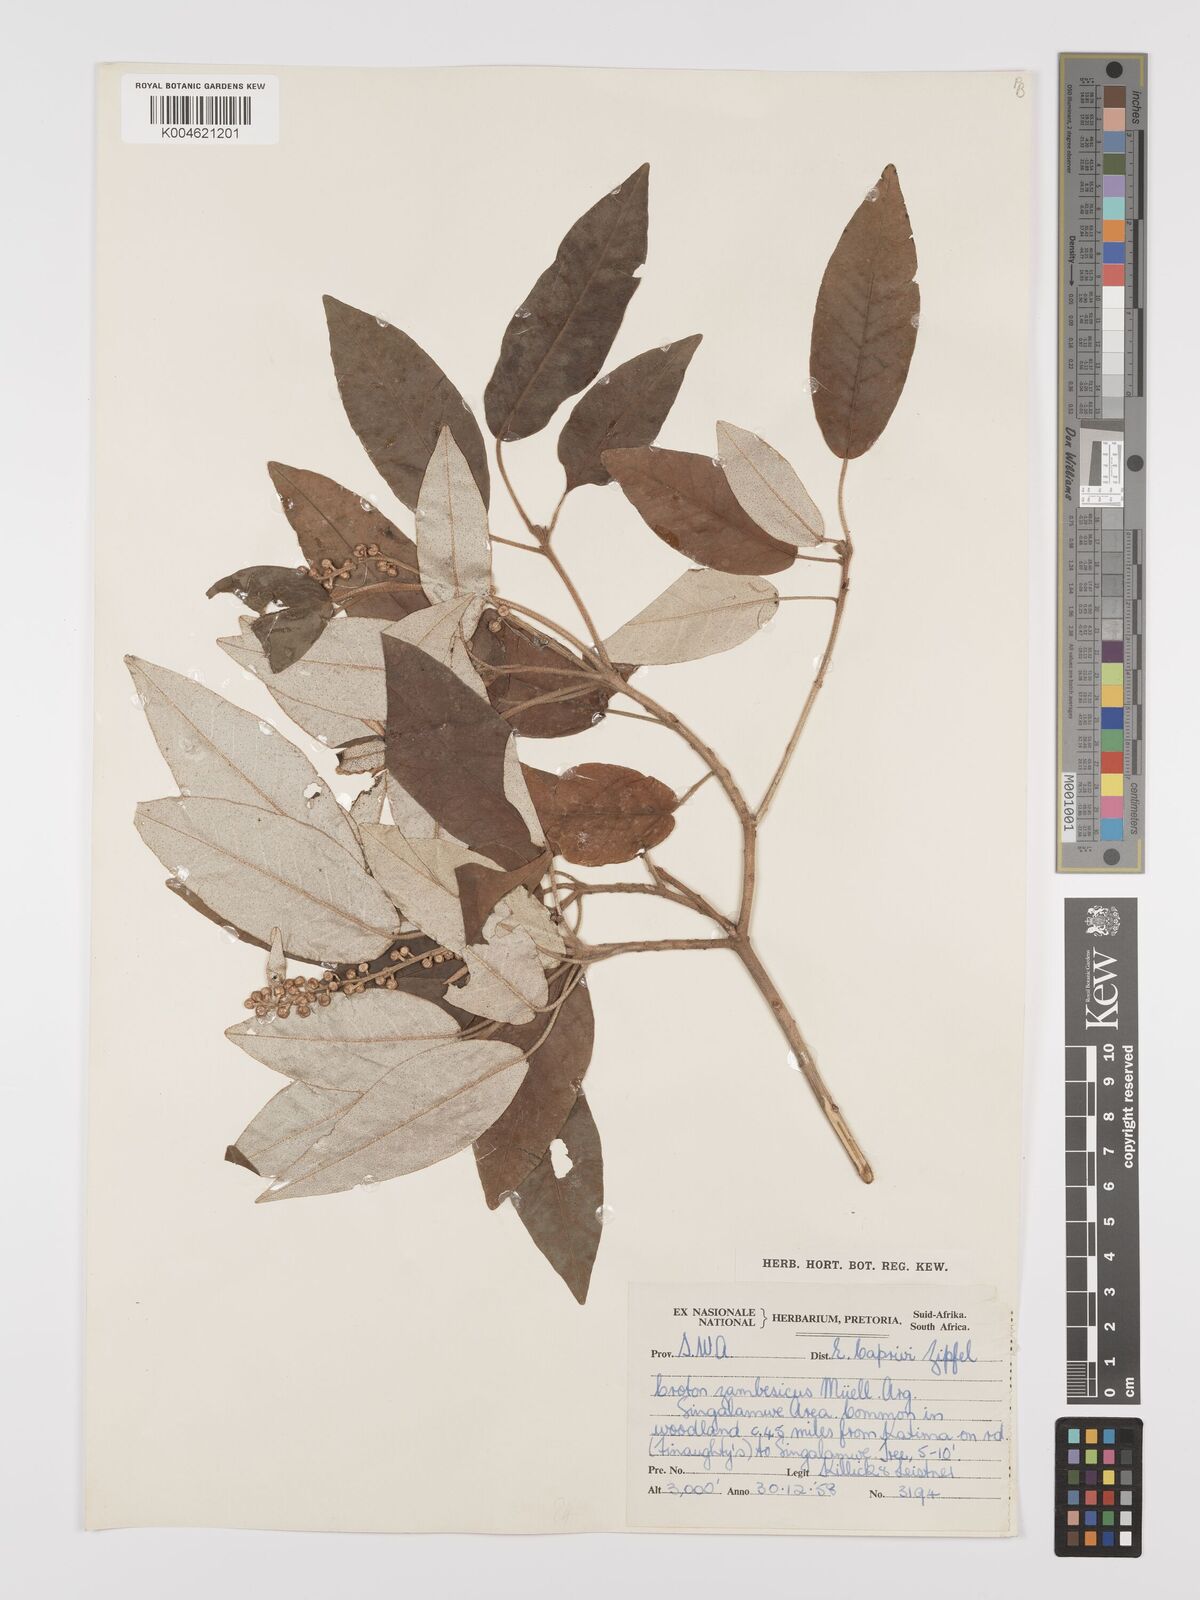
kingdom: Plantae
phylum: Tracheophyta
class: Magnoliopsida
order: Malpighiales
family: Euphorbiaceae
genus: Croton
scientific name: Croton gratissimus
